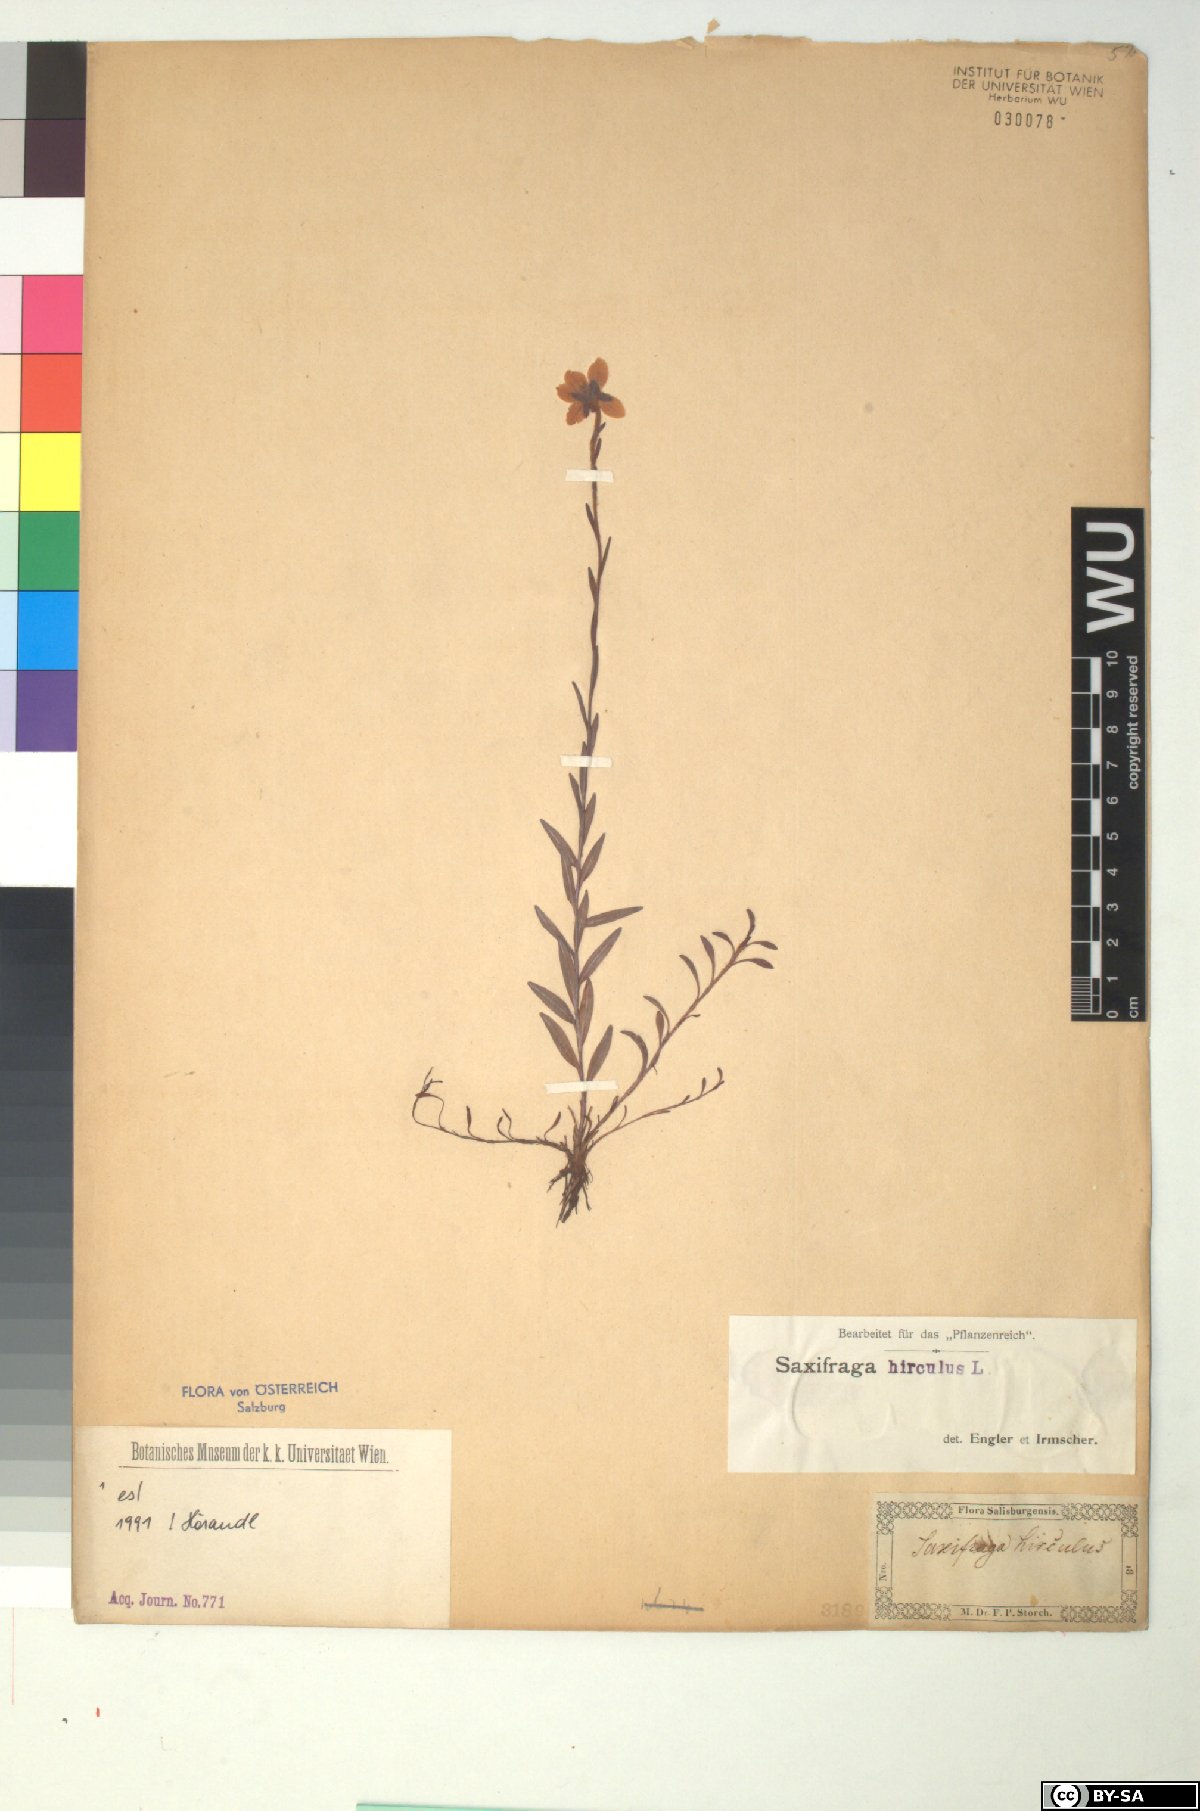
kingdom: Plantae
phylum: Tracheophyta
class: Magnoliopsida
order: Saxifragales
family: Saxifragaceae
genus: Saxifraga
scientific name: Saxifraga hirculus
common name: Yellow marsh saxifrage
